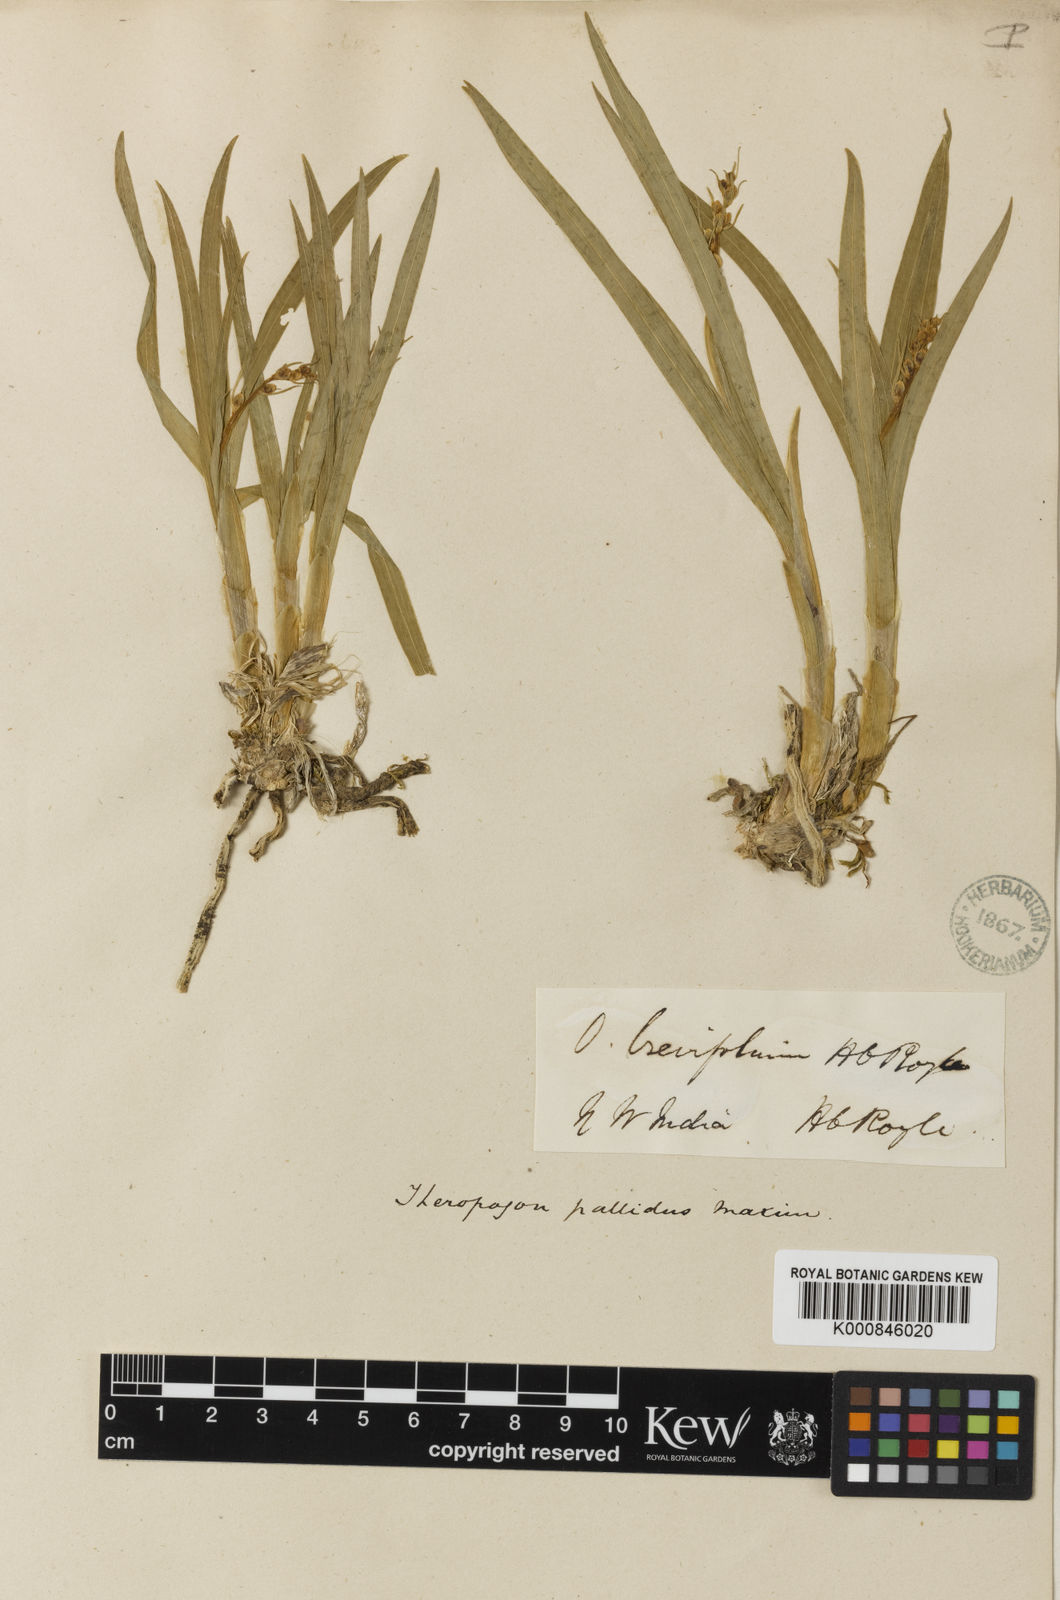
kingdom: Plantae
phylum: Tracheophyta
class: Liliopsida
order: Asparagales
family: Asparagaceae
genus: Theropogon
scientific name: Theropogon pallidus
